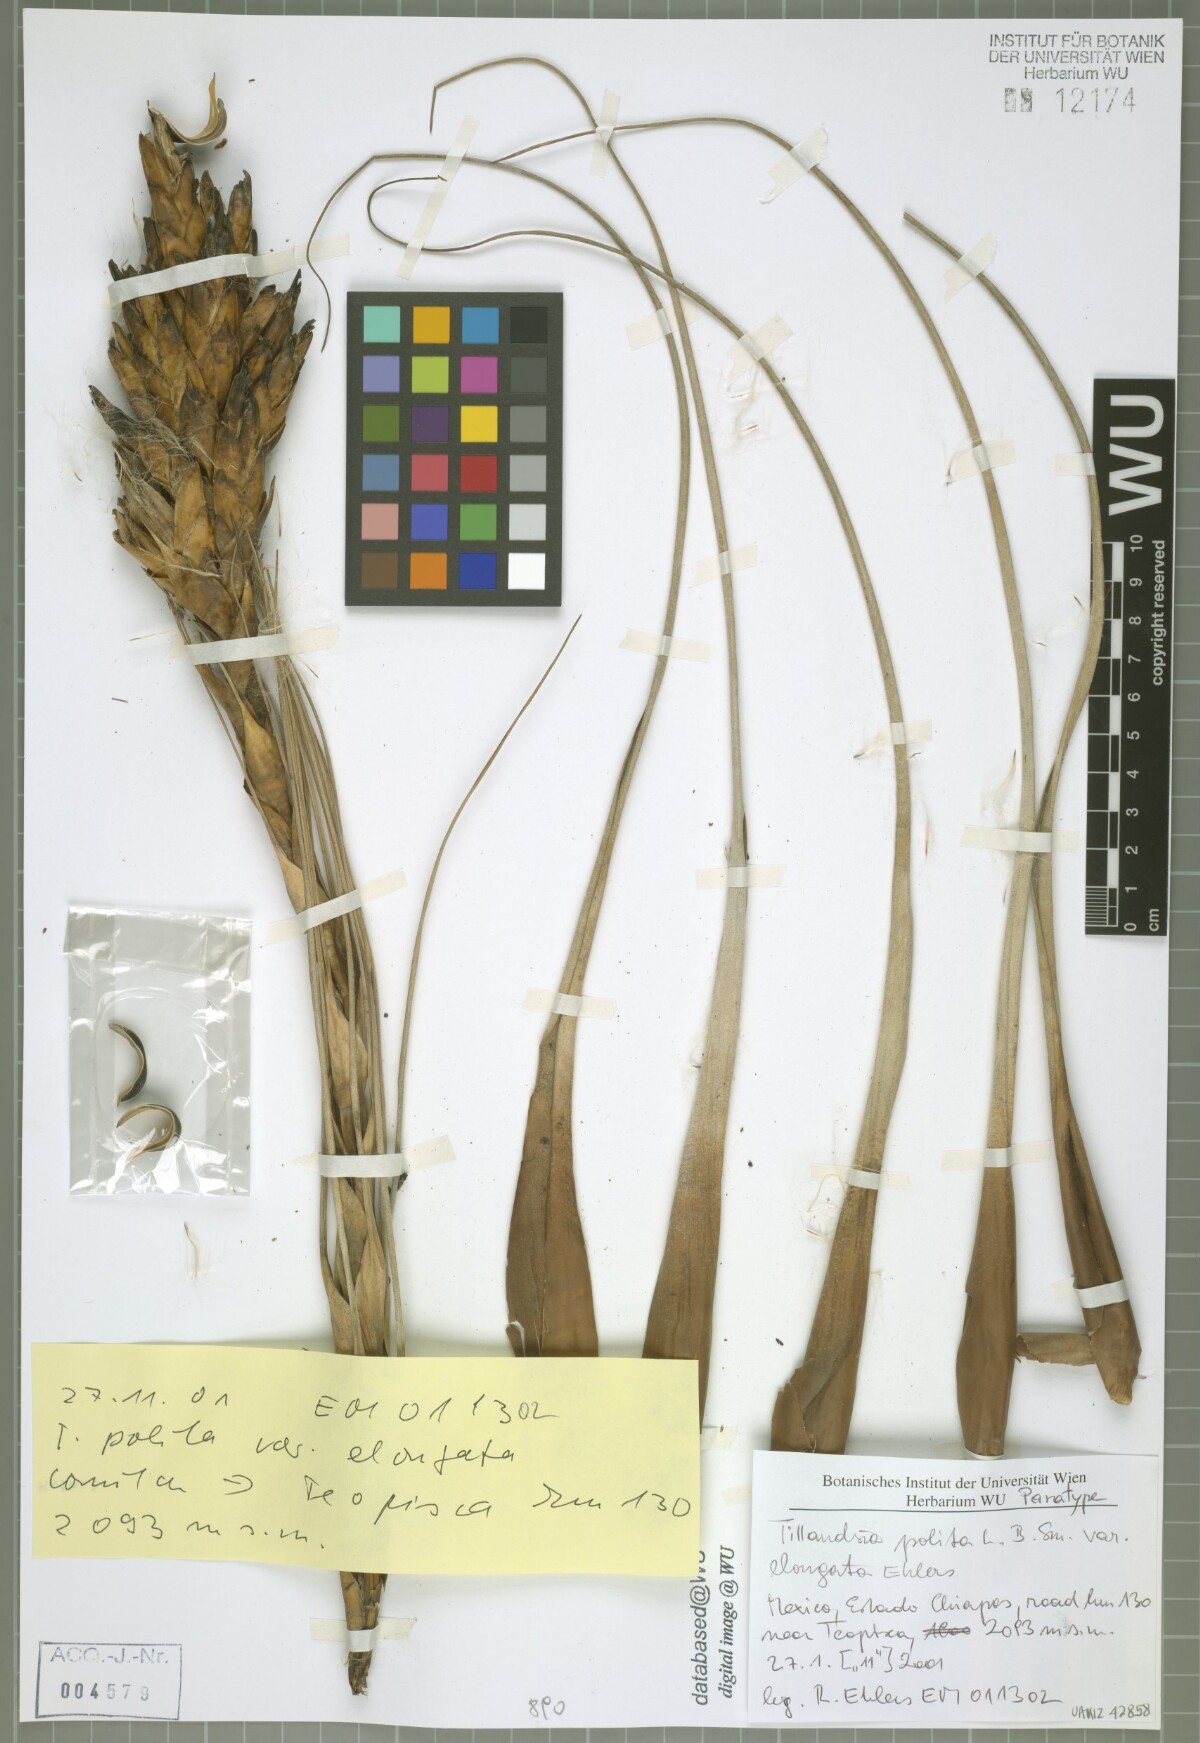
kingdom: Plantae
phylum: Tracheophyta
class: Liliopsida
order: Poales
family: Bromeliaceae
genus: Tillandsia
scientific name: Tillandsia polita
